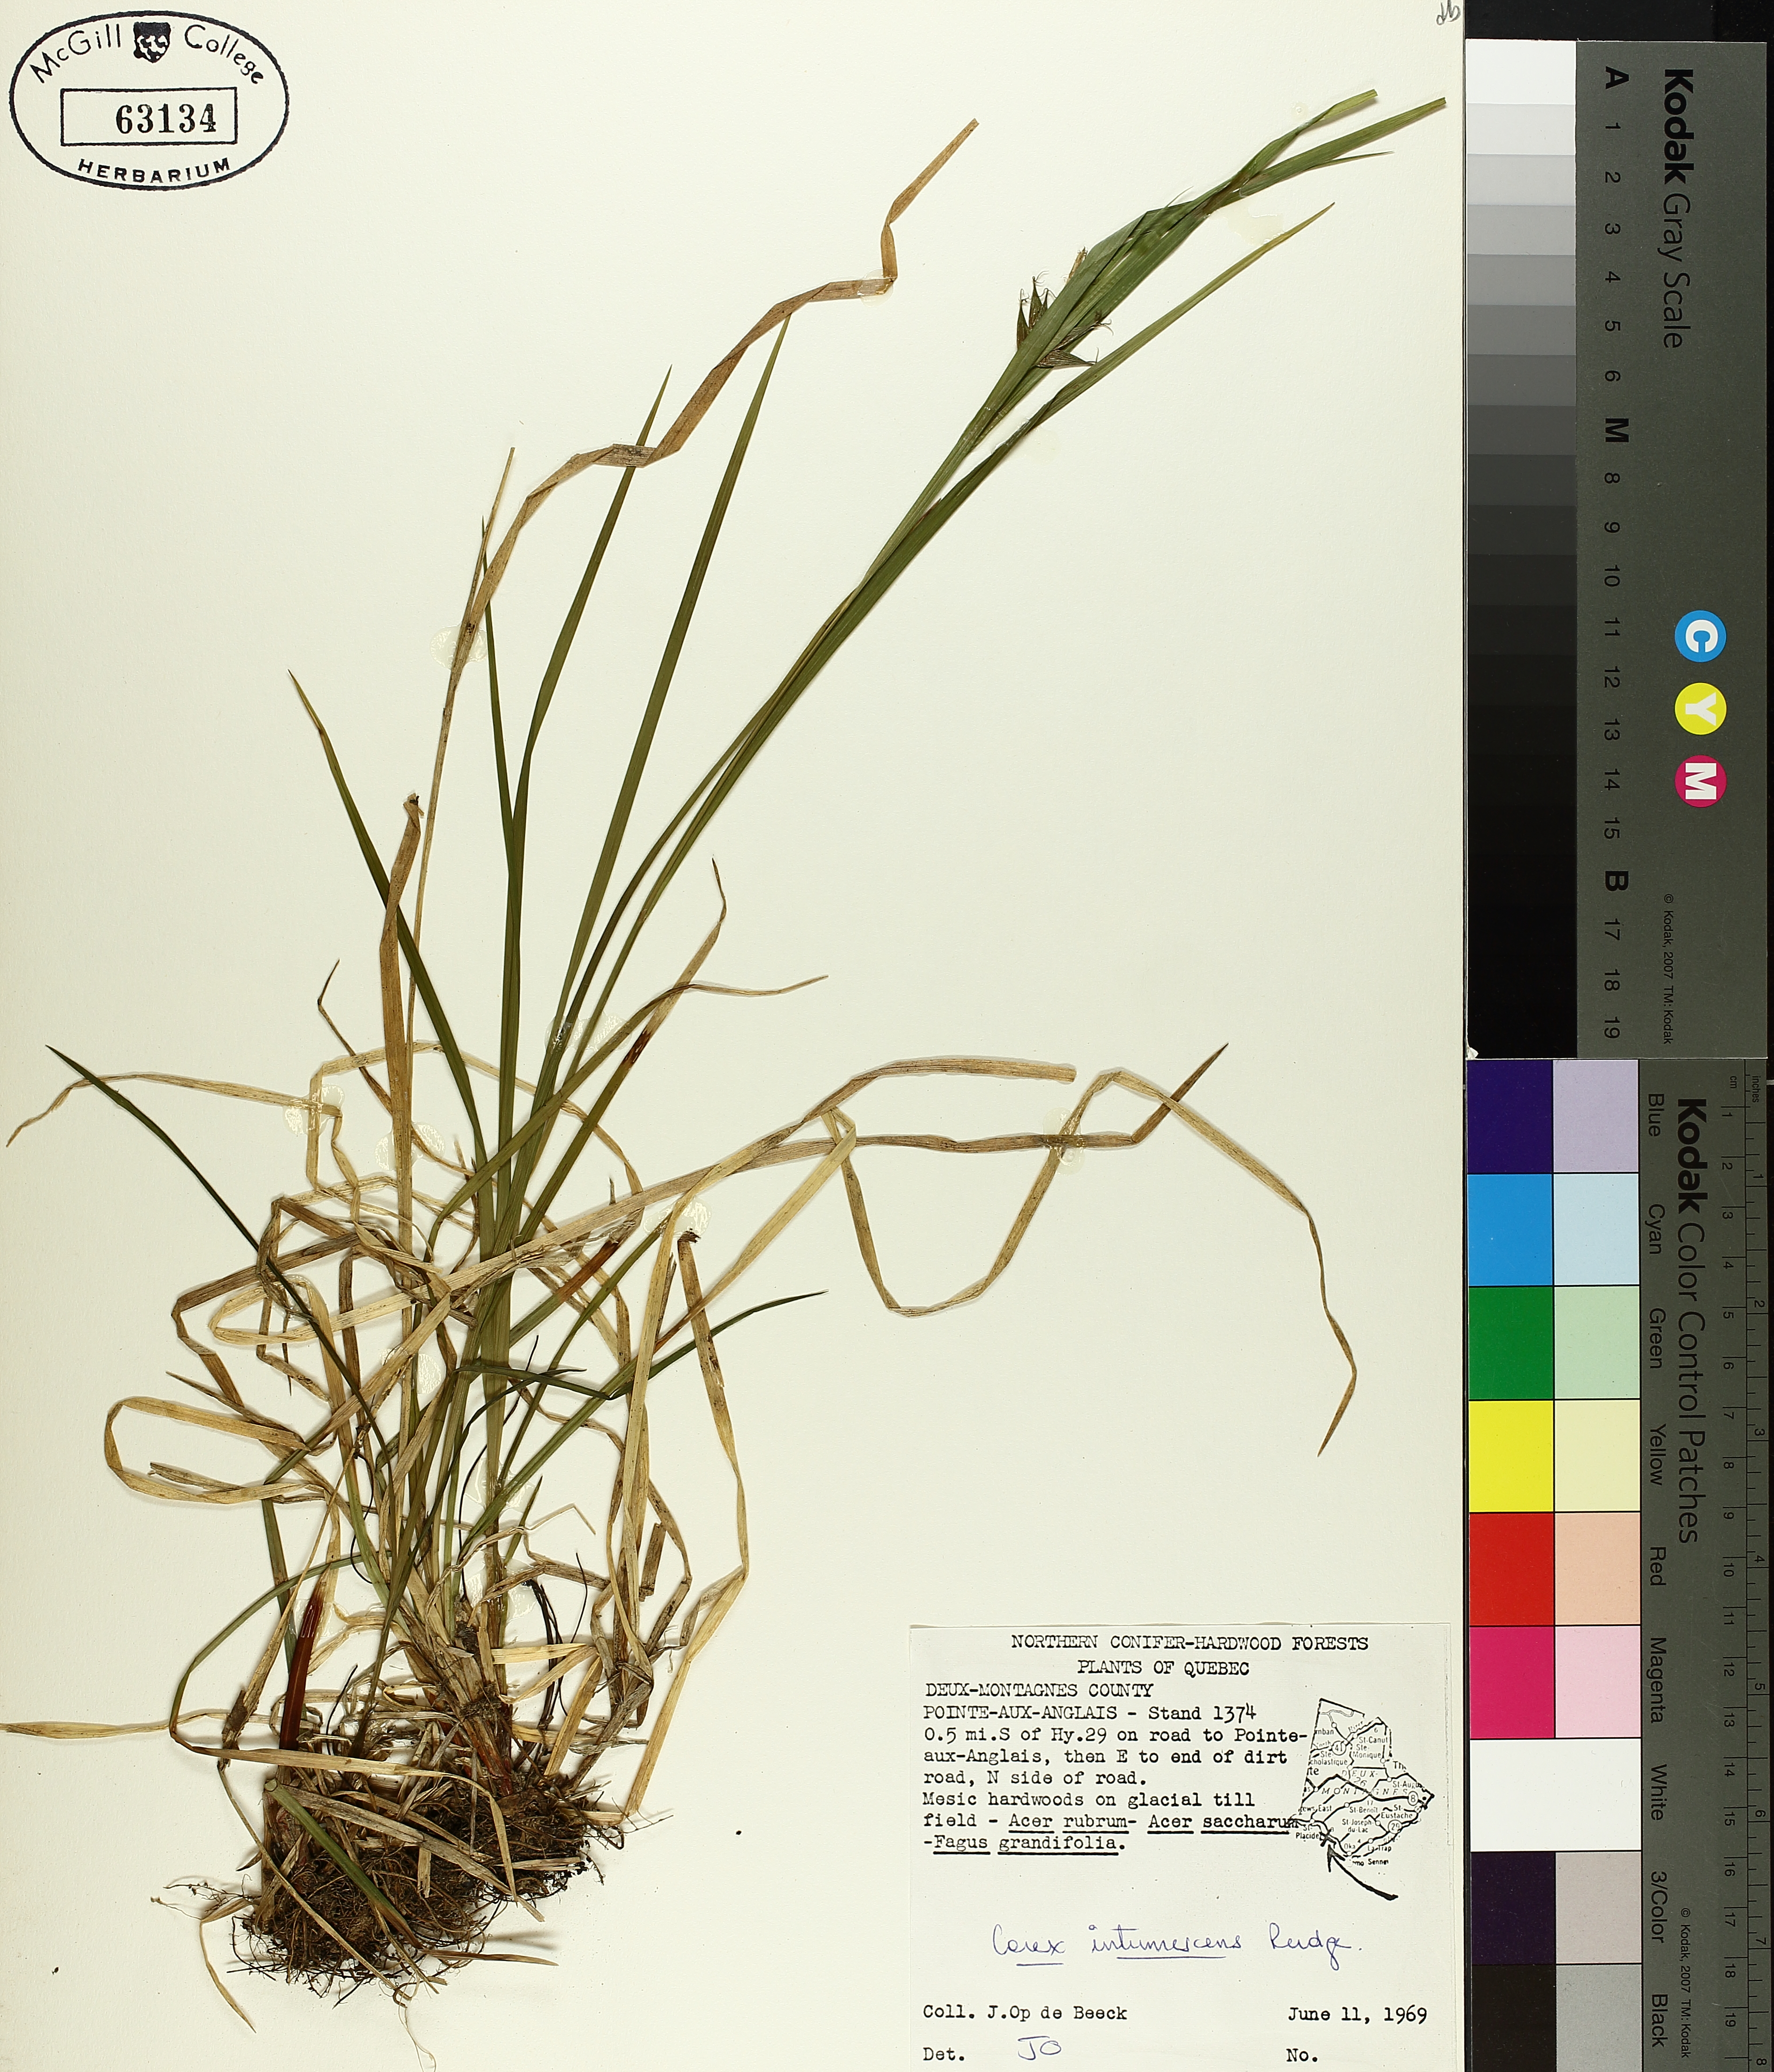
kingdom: Plantae
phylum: Tracheophyta
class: Liliopsida
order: Poales
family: Cyperaceae
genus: Carex
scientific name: Carex intumescens
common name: Greater bladder sedge
